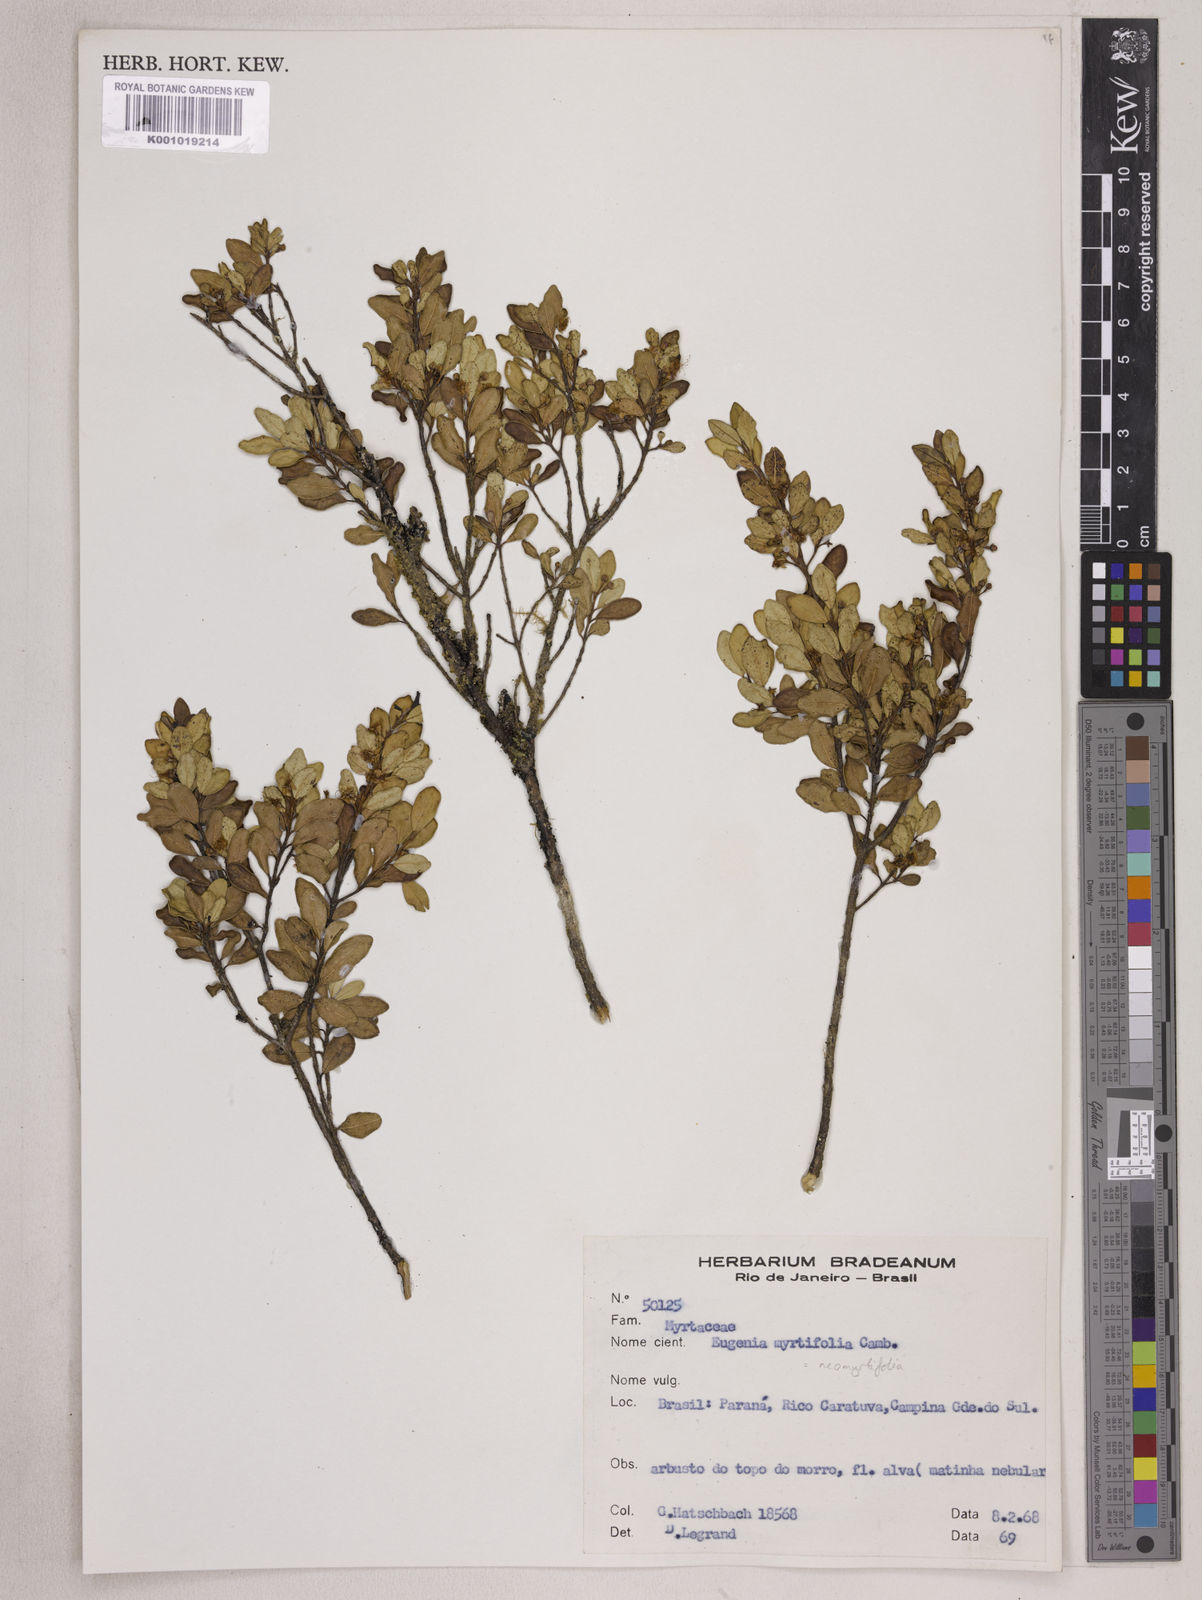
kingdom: Plantae
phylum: Tracheophyta
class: Magnoliopsida
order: Myrtales
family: Myrtaceae
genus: Eugenia
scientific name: Eugenia neomyrtifolia
